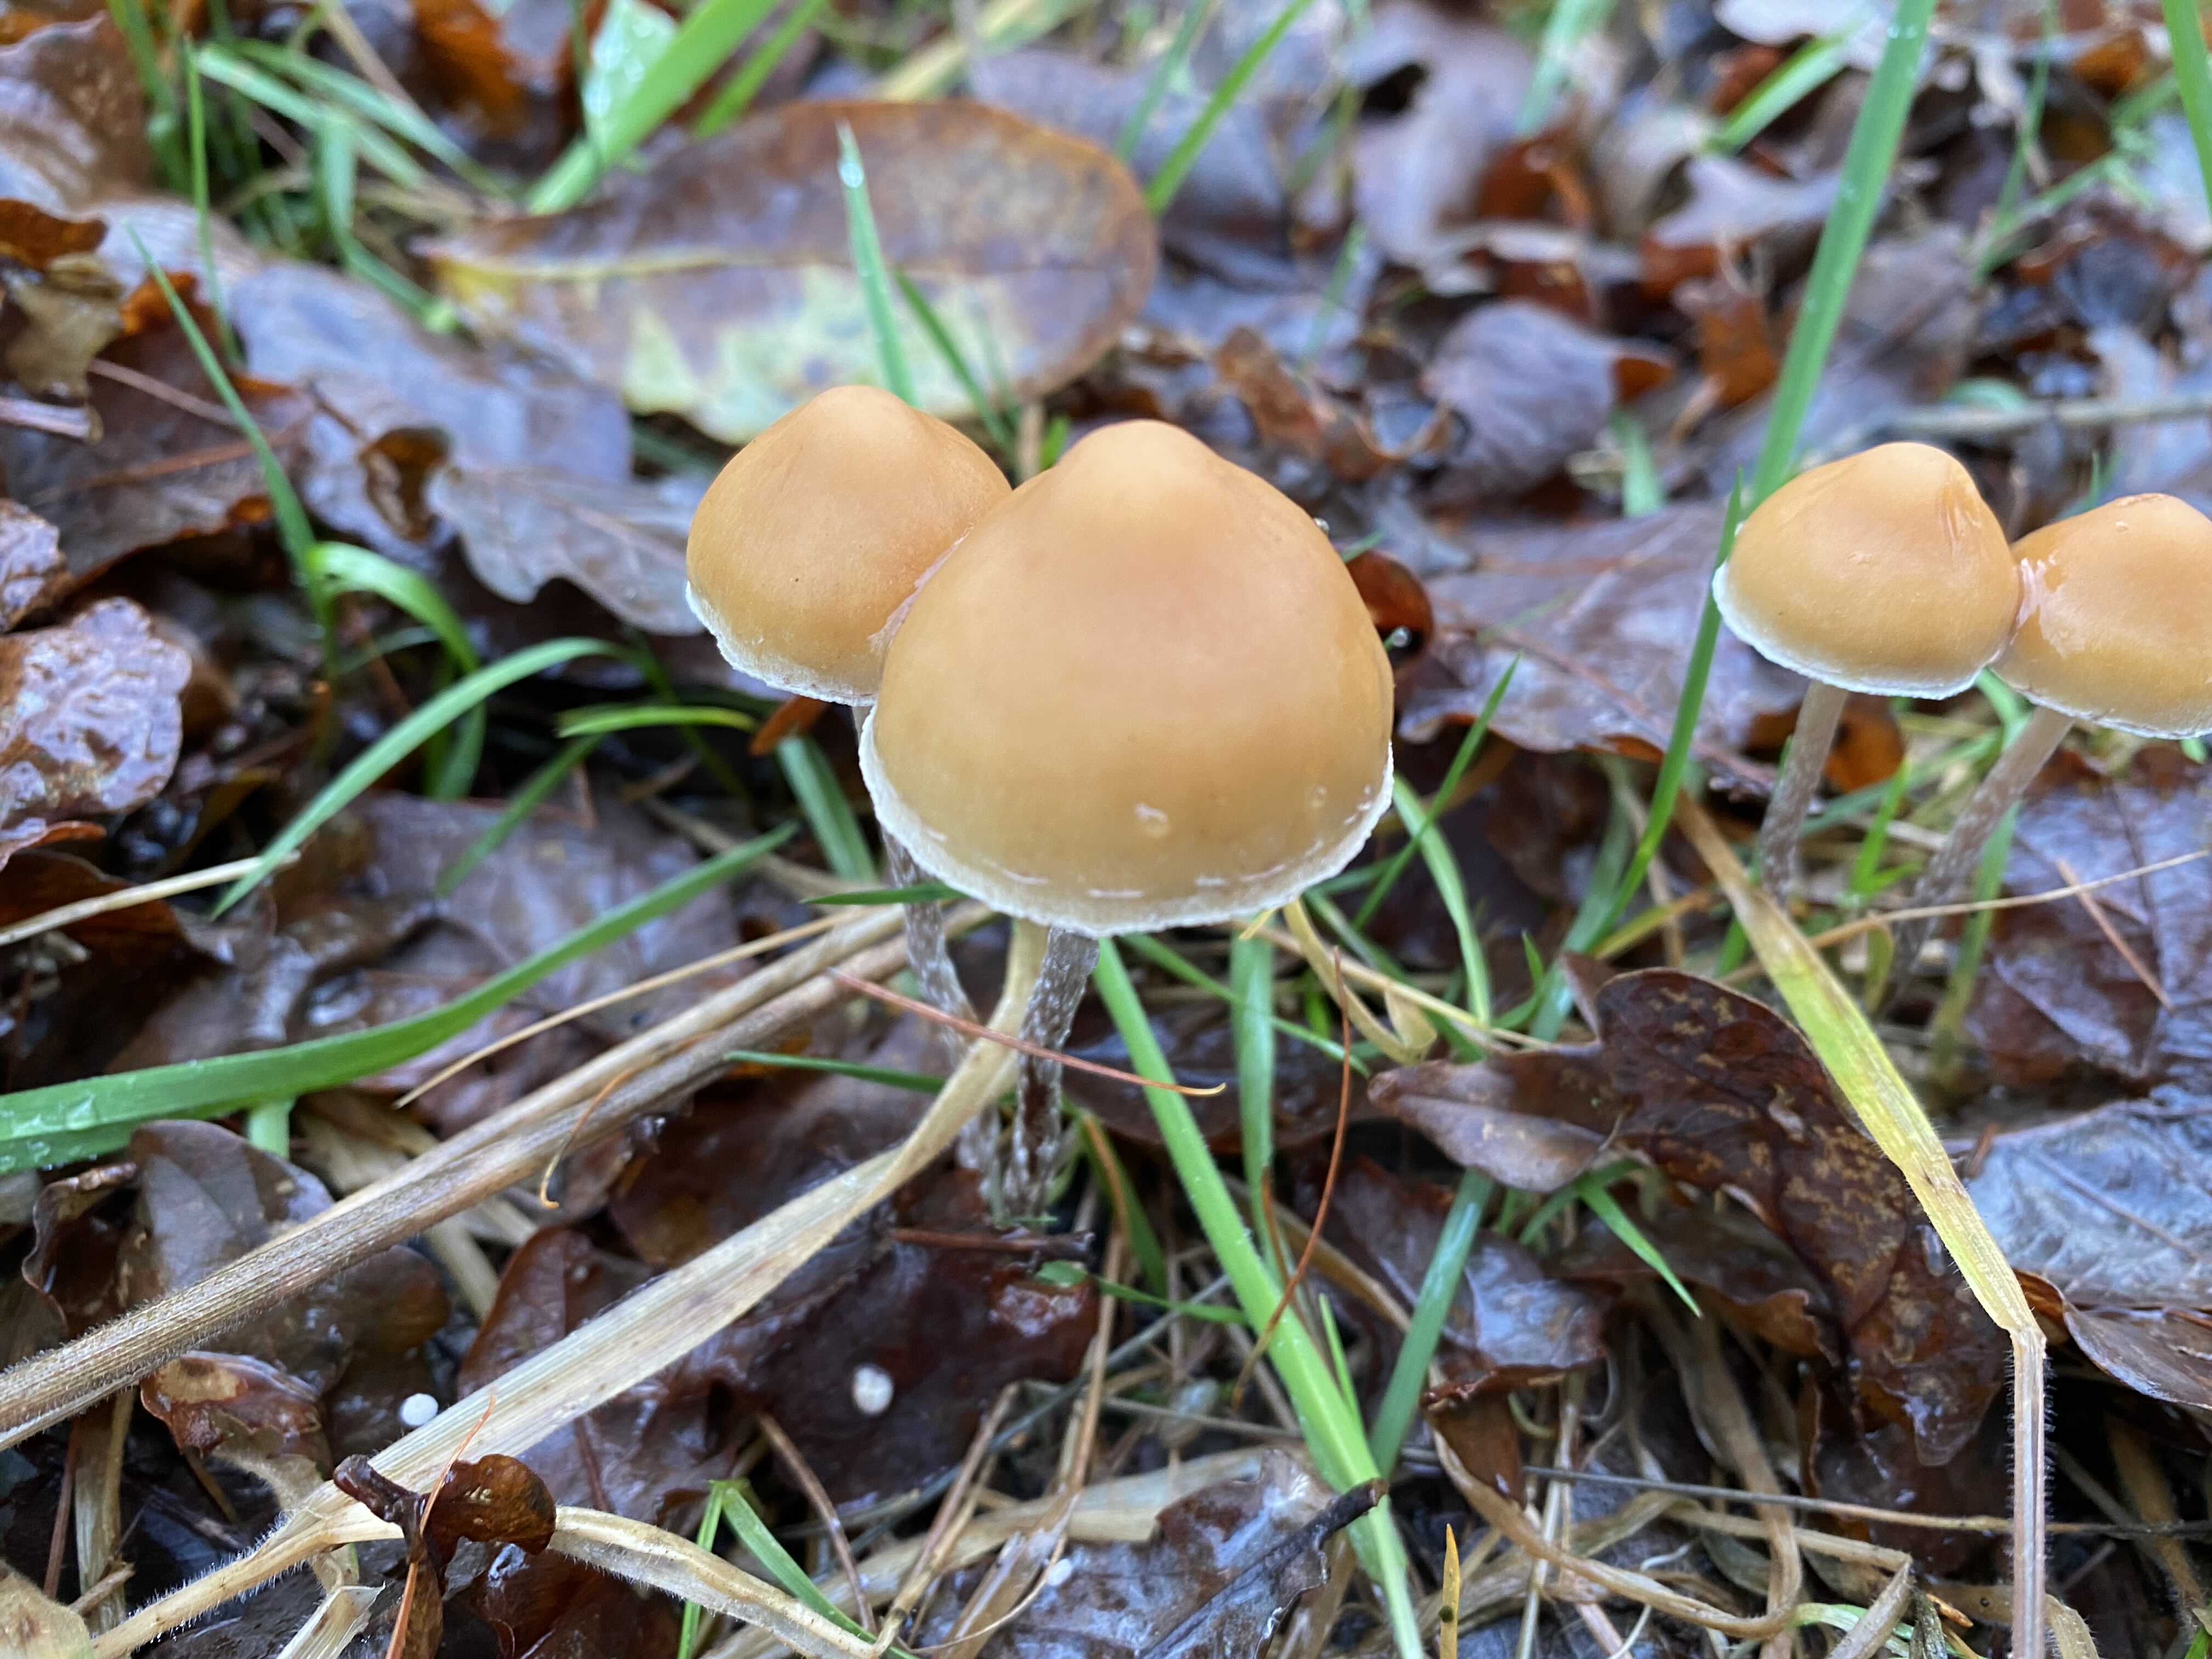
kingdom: Fungi
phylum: Basidiomycota
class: Agaricomycetes
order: Agaricales
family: Strophariaceae
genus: Hypholoma
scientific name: Hypholoma marginatum
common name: enlig svovlhat
